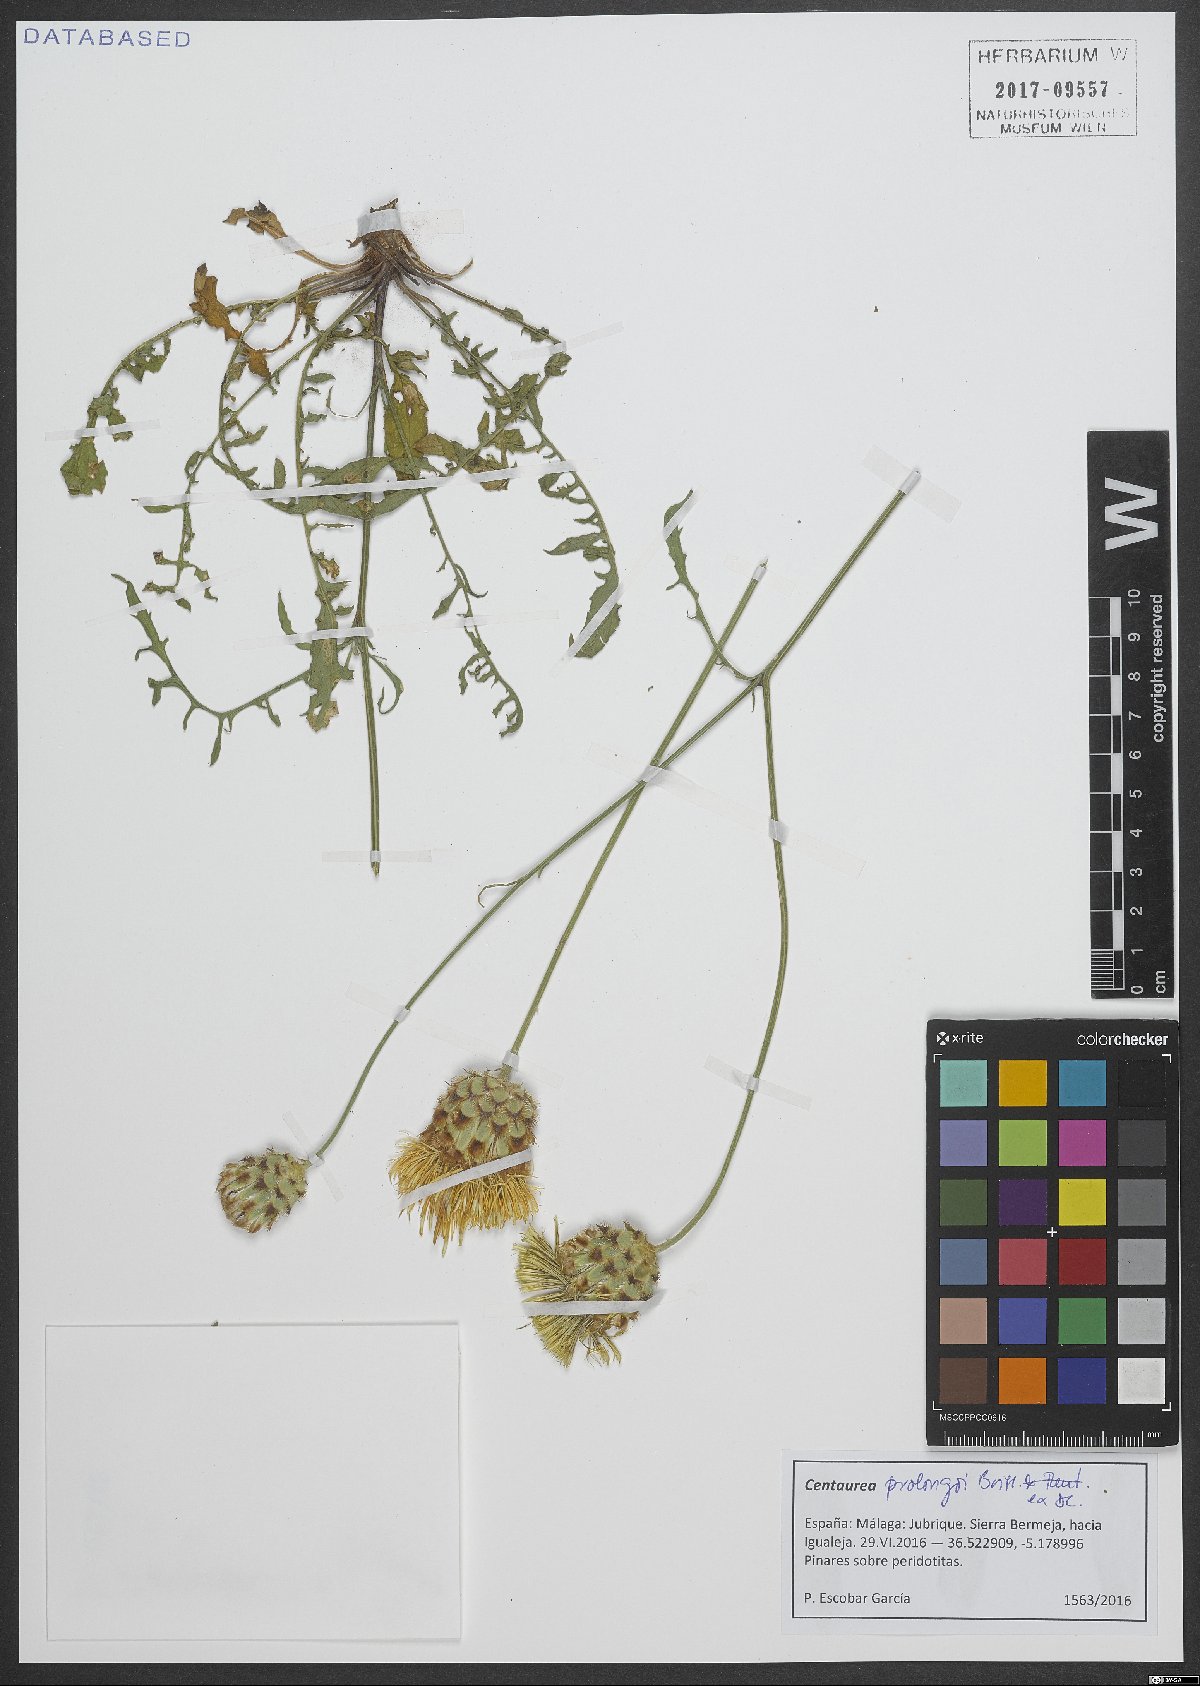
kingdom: Plantae
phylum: Tracheophyta
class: Magnoliopsida
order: Asterales
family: Asteraceae
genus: Centaurea
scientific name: Centaurea prolongi
